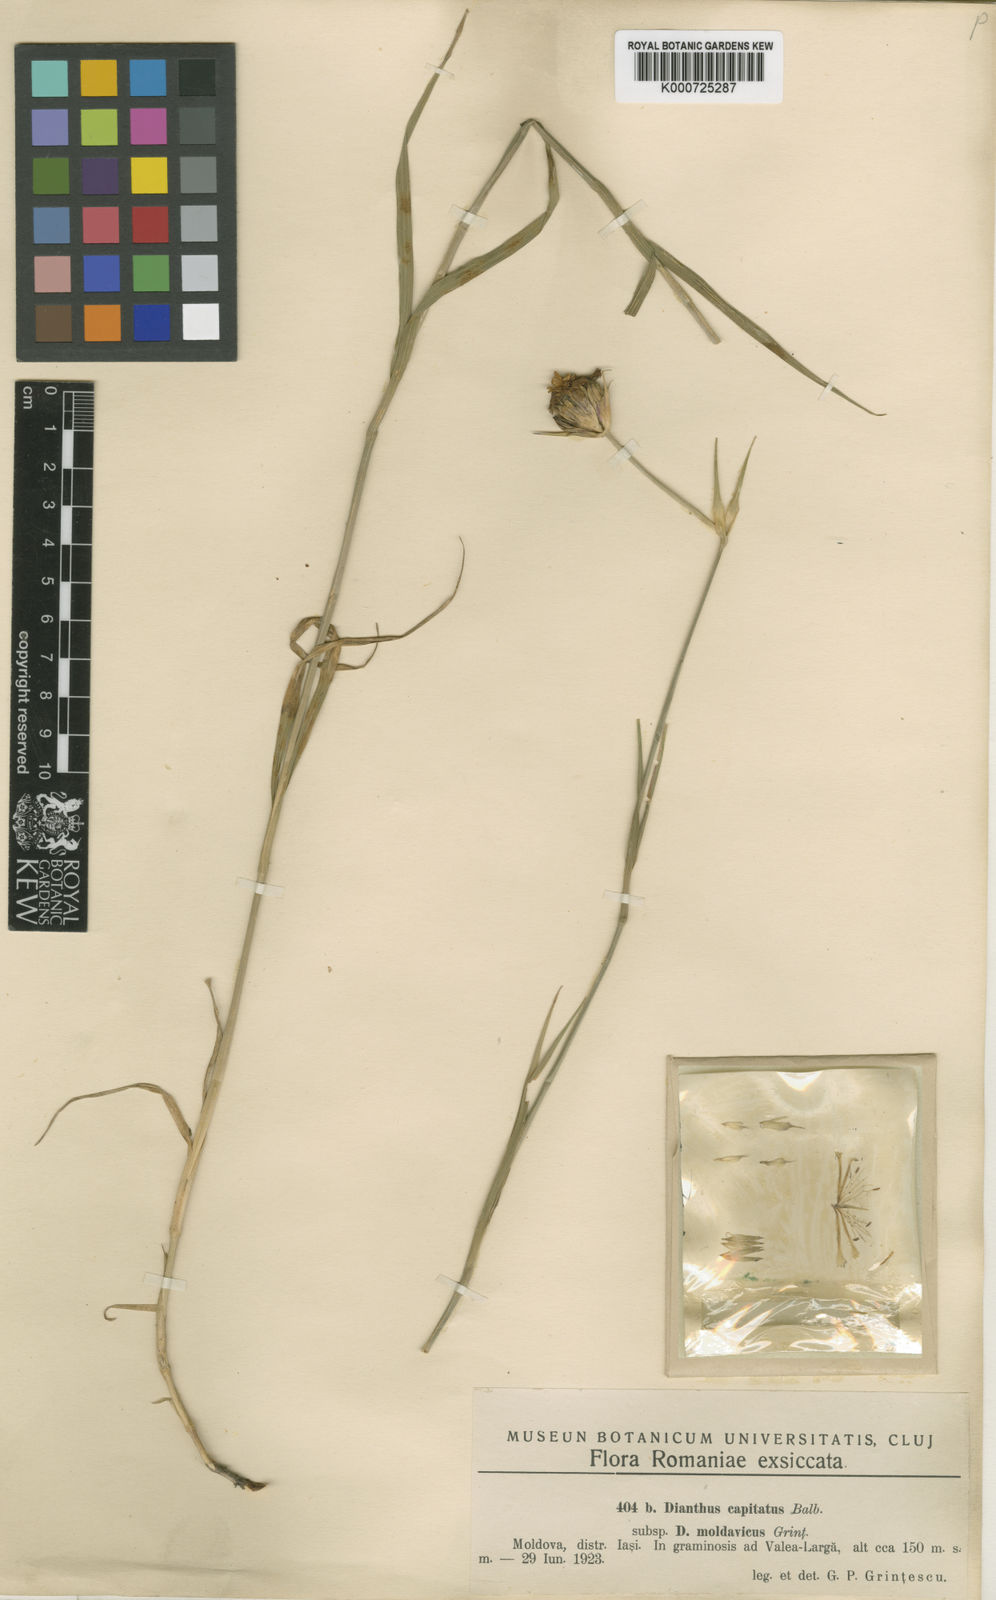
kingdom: Plantae
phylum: Tracheophyta
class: Magnoliopsida
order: Caryophyllales
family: Caryophyllaceae
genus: Dianthus
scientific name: Dianthus
